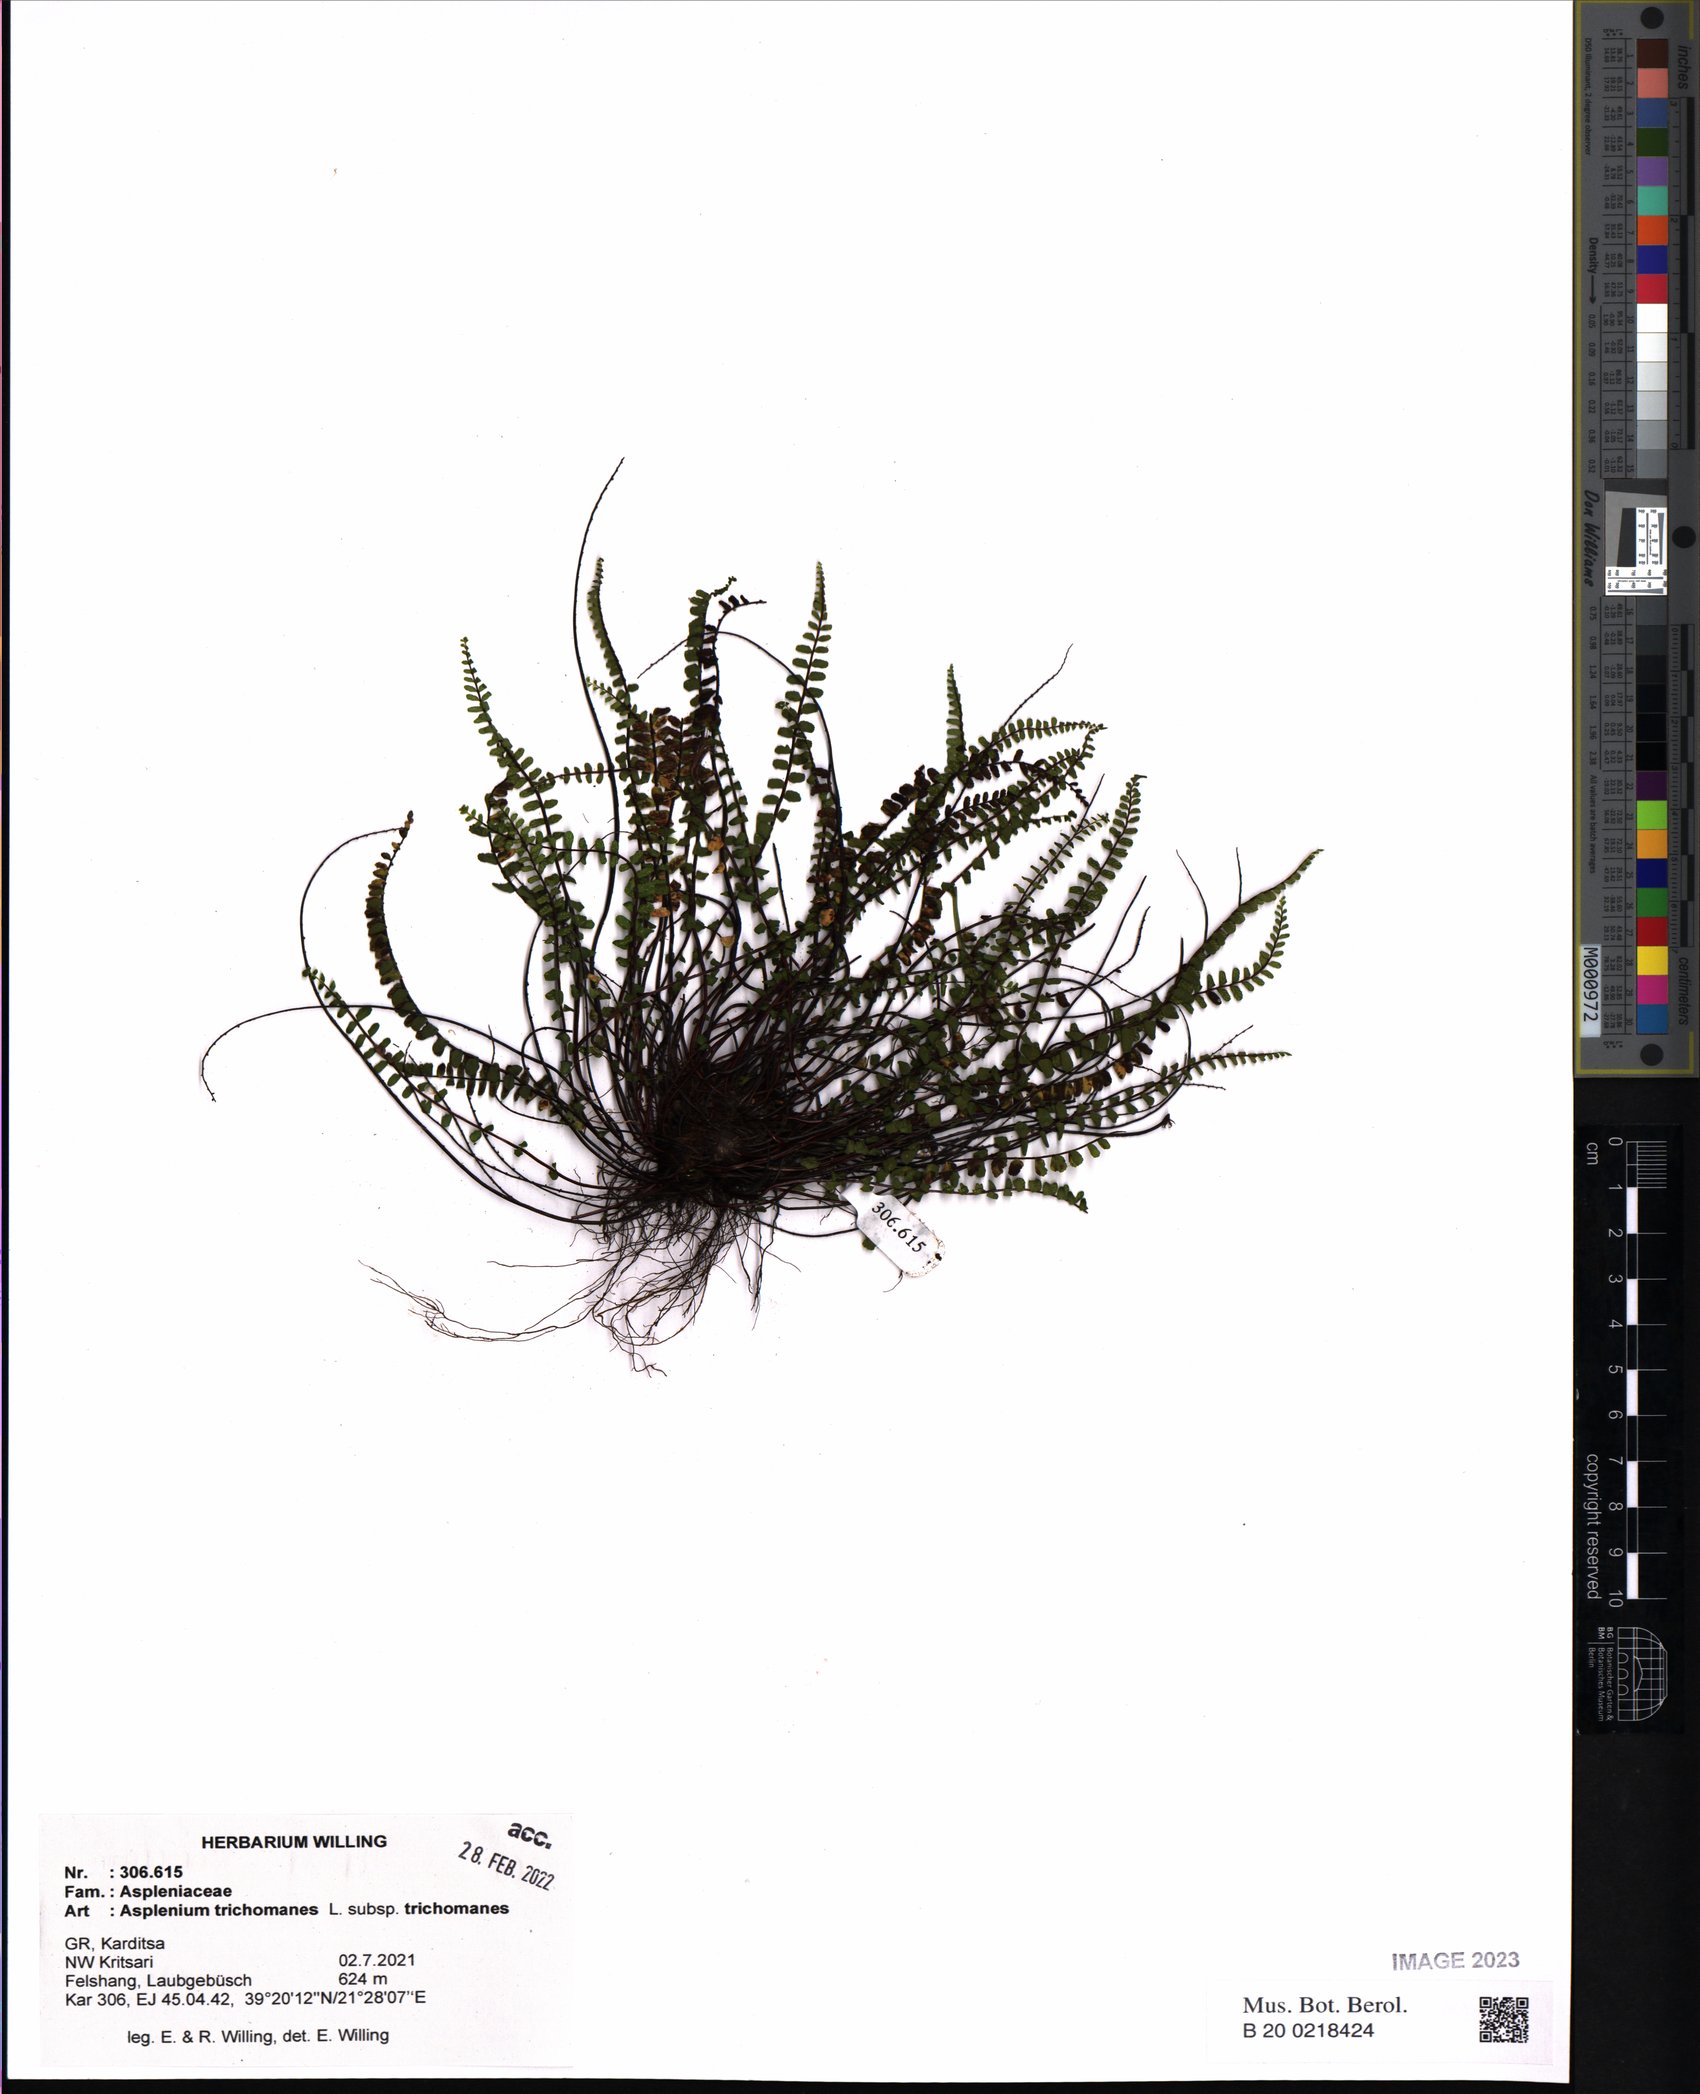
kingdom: Plantae
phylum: Tracheophyta
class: Polypodiopsida
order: Polypodiales
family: Aspleniaceae
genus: Asplenium
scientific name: Asplenium trichomanes
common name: Maidenhair spleenwort
